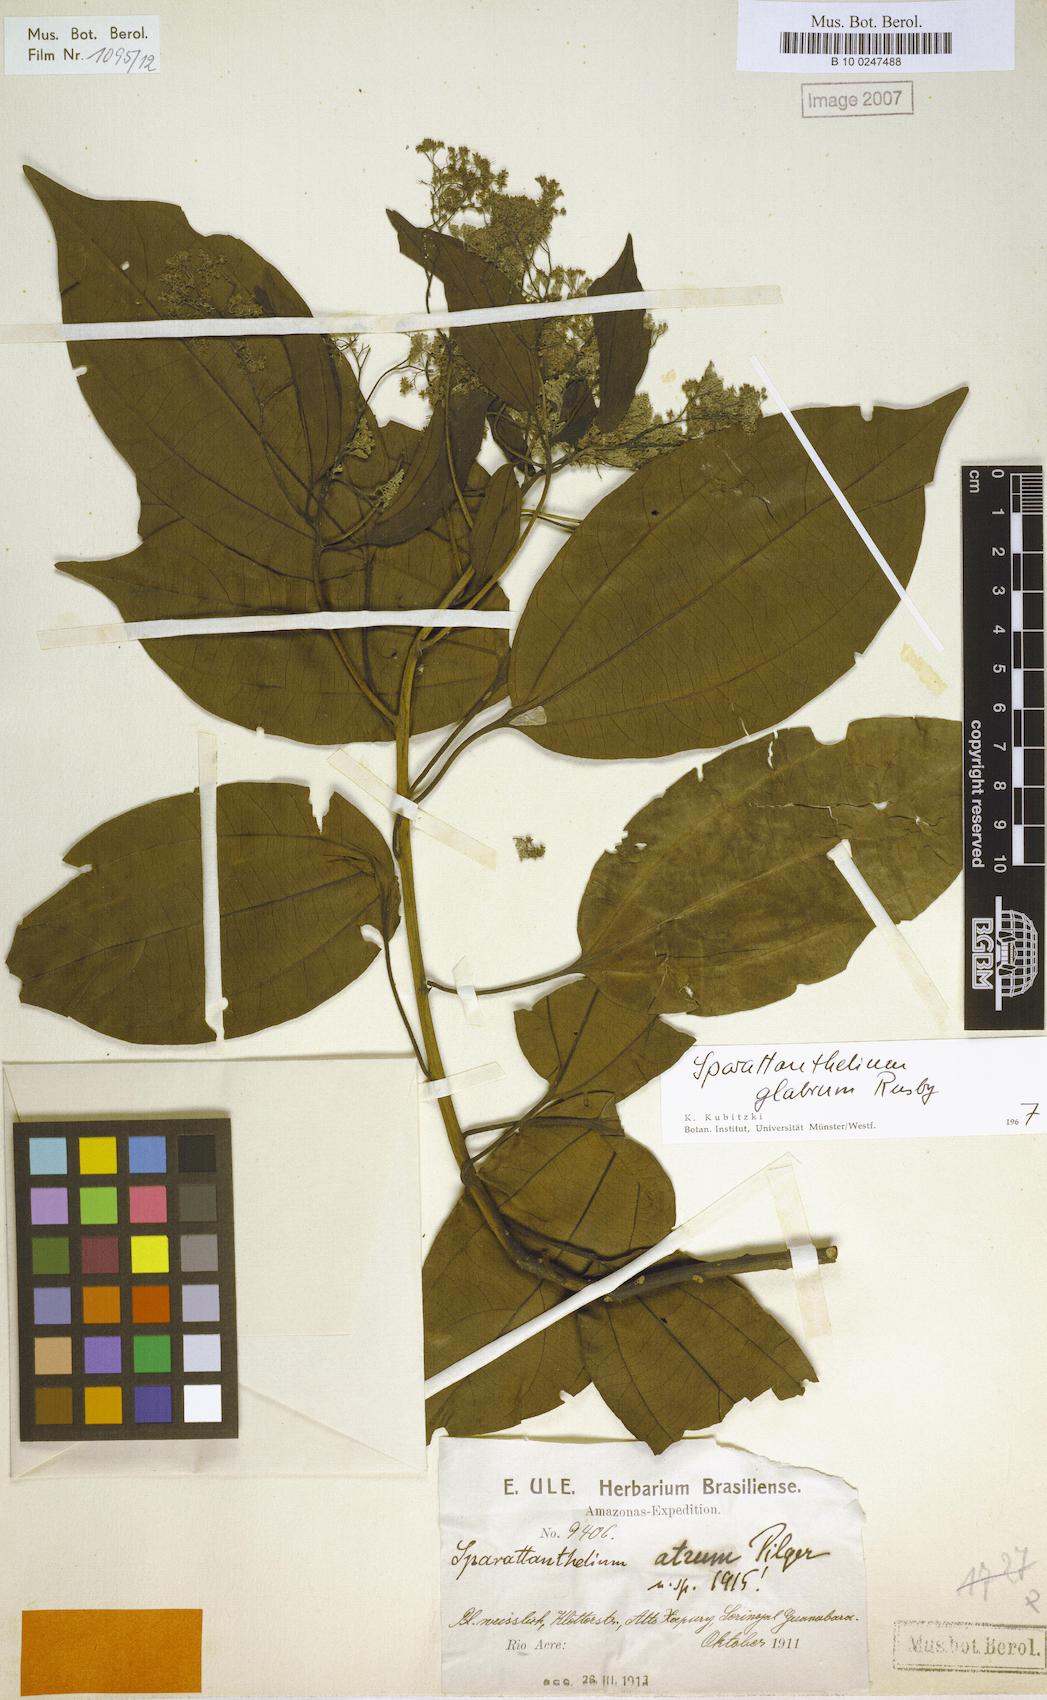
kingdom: Plantae
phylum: Tracheophyta
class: Magnoliopsida
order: Laurales
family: Hernandiaceae
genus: Sparattanthelium
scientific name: Sparattanthelium glabrum
